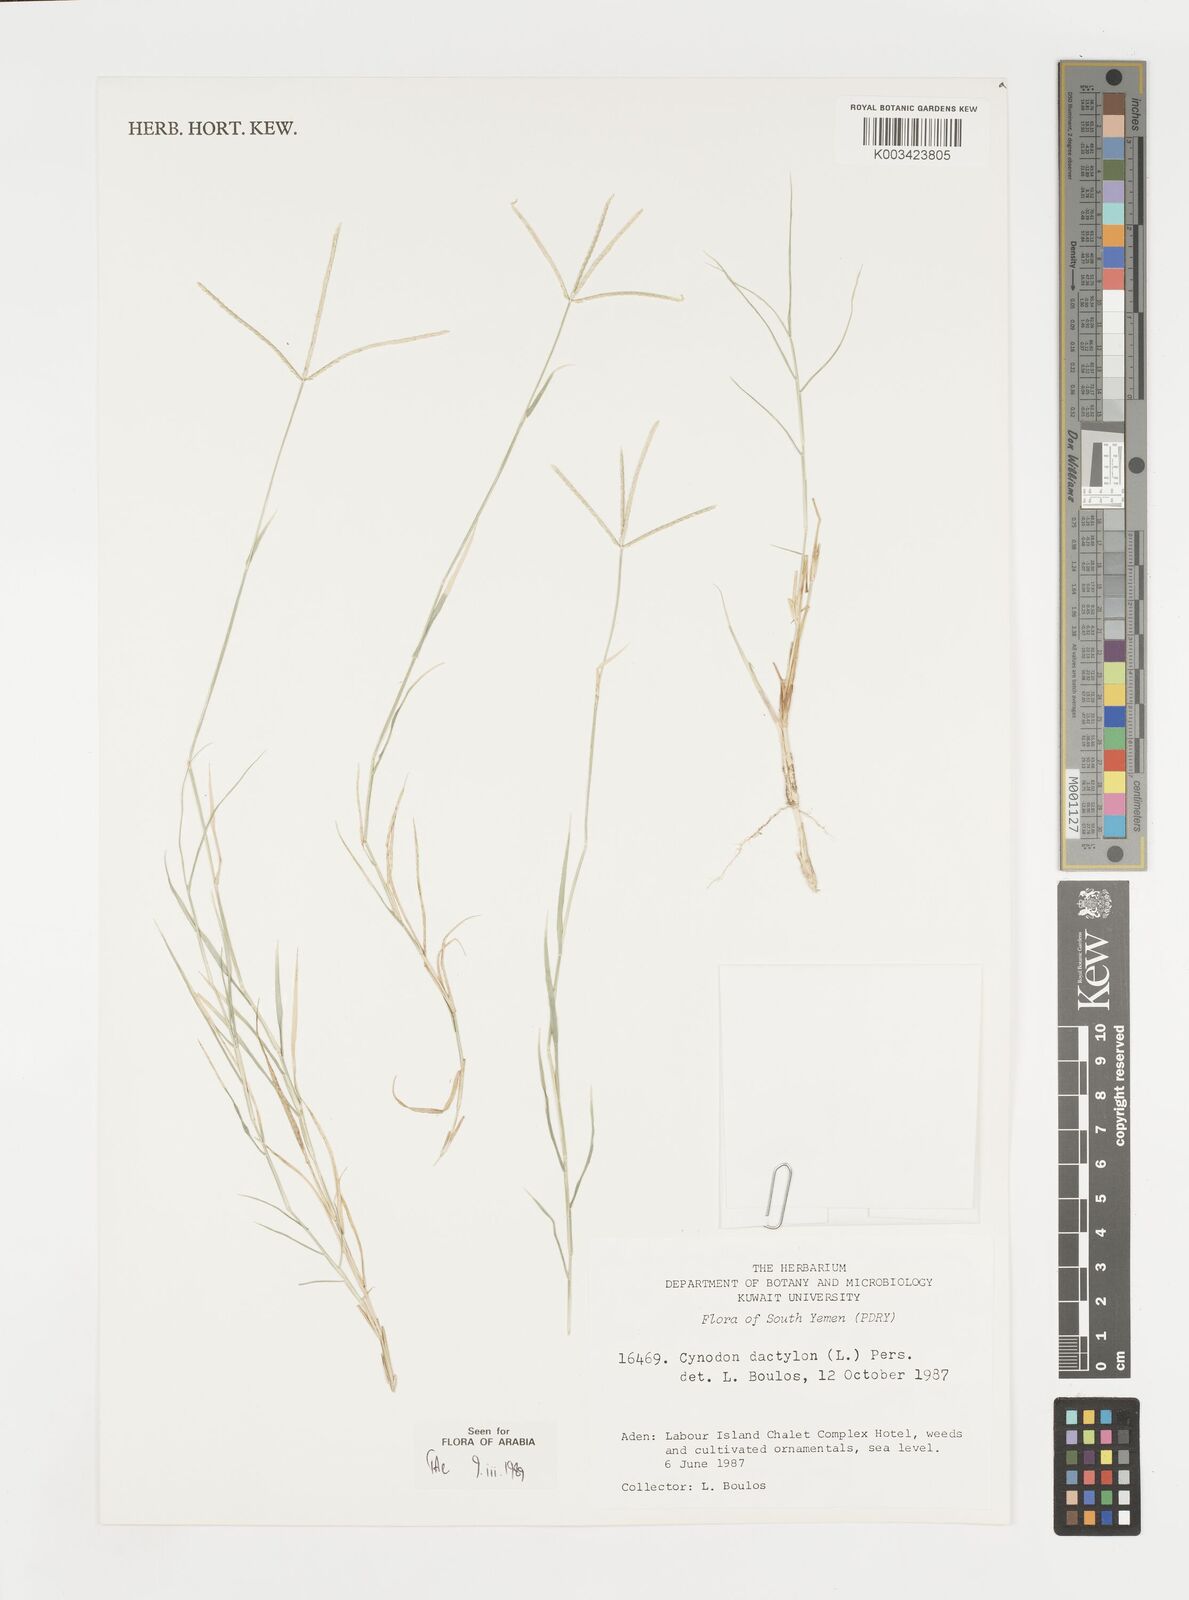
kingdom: Plantae
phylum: Tracheophyta
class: Liliopsida
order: Poales
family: Poaceae
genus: Cynodon
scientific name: Cynodon dactylon
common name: Bermuda grass
